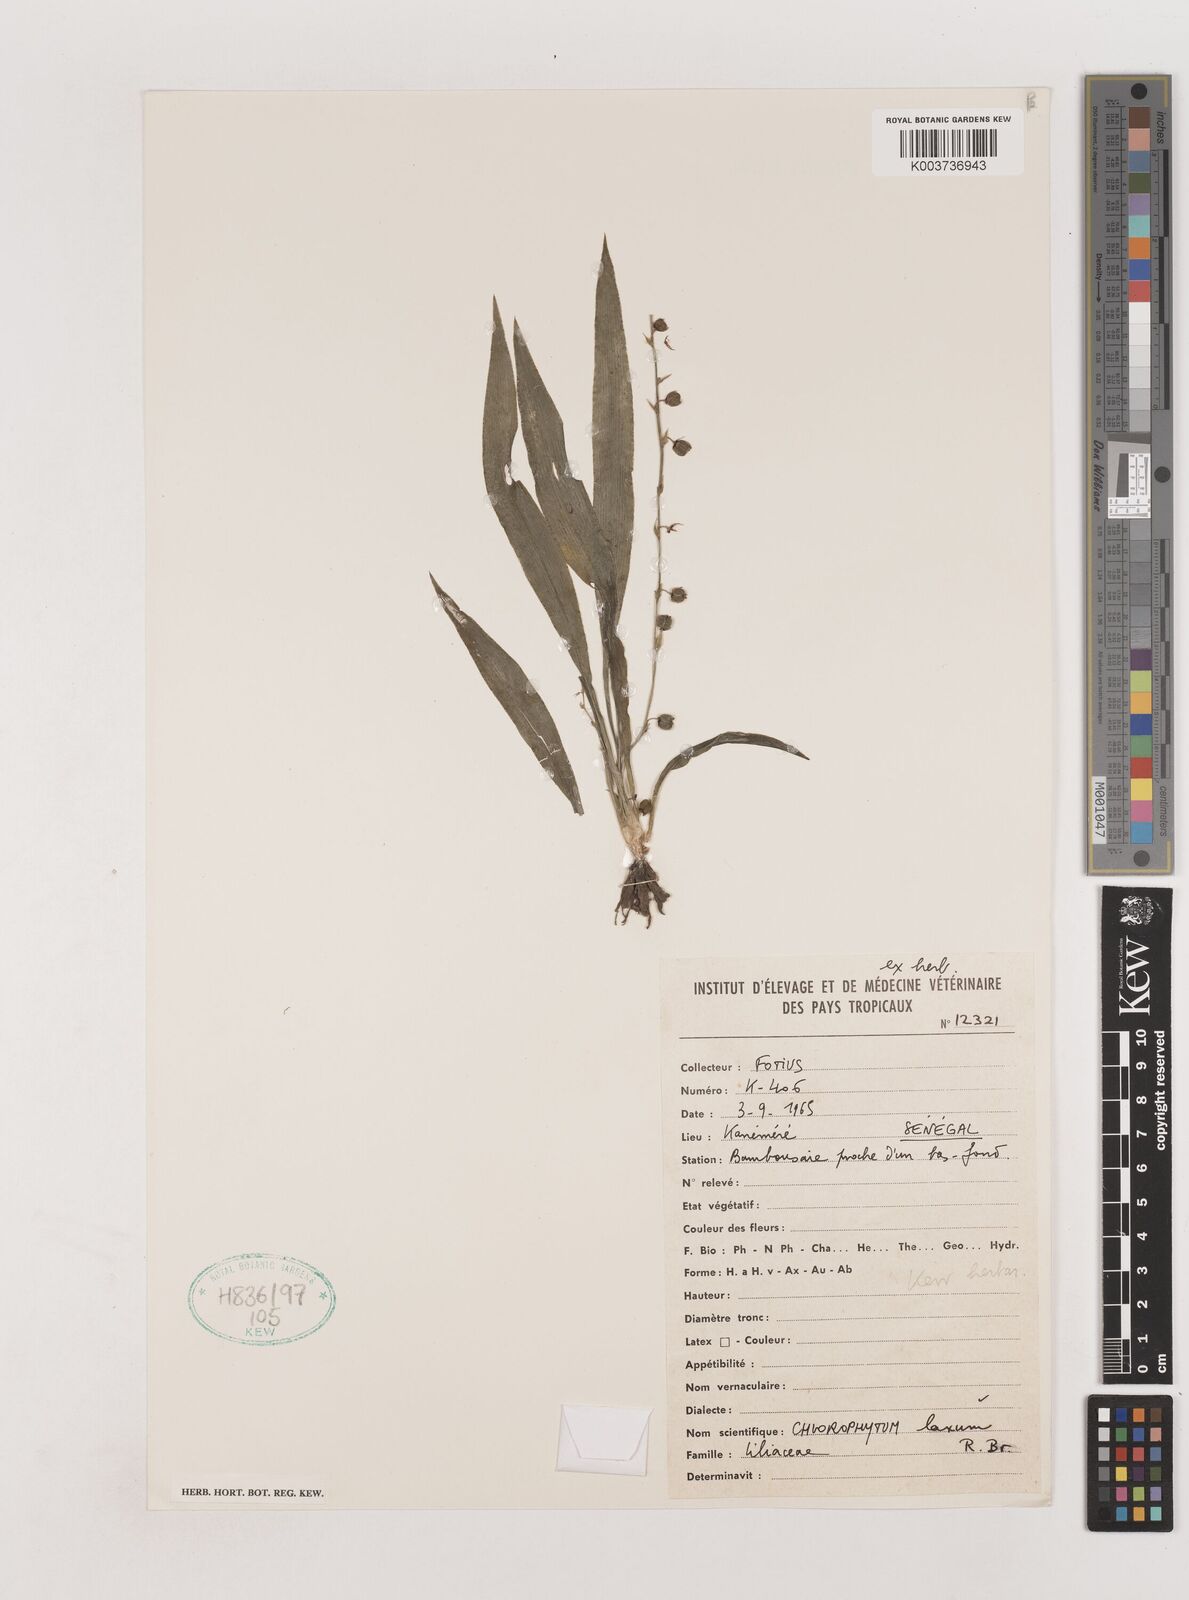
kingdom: Plantae
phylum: Tracheophyta
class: Liliopsida
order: Asparagales
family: Asparagaceae
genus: Chlorophytum
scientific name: Chlorophytum laxum
